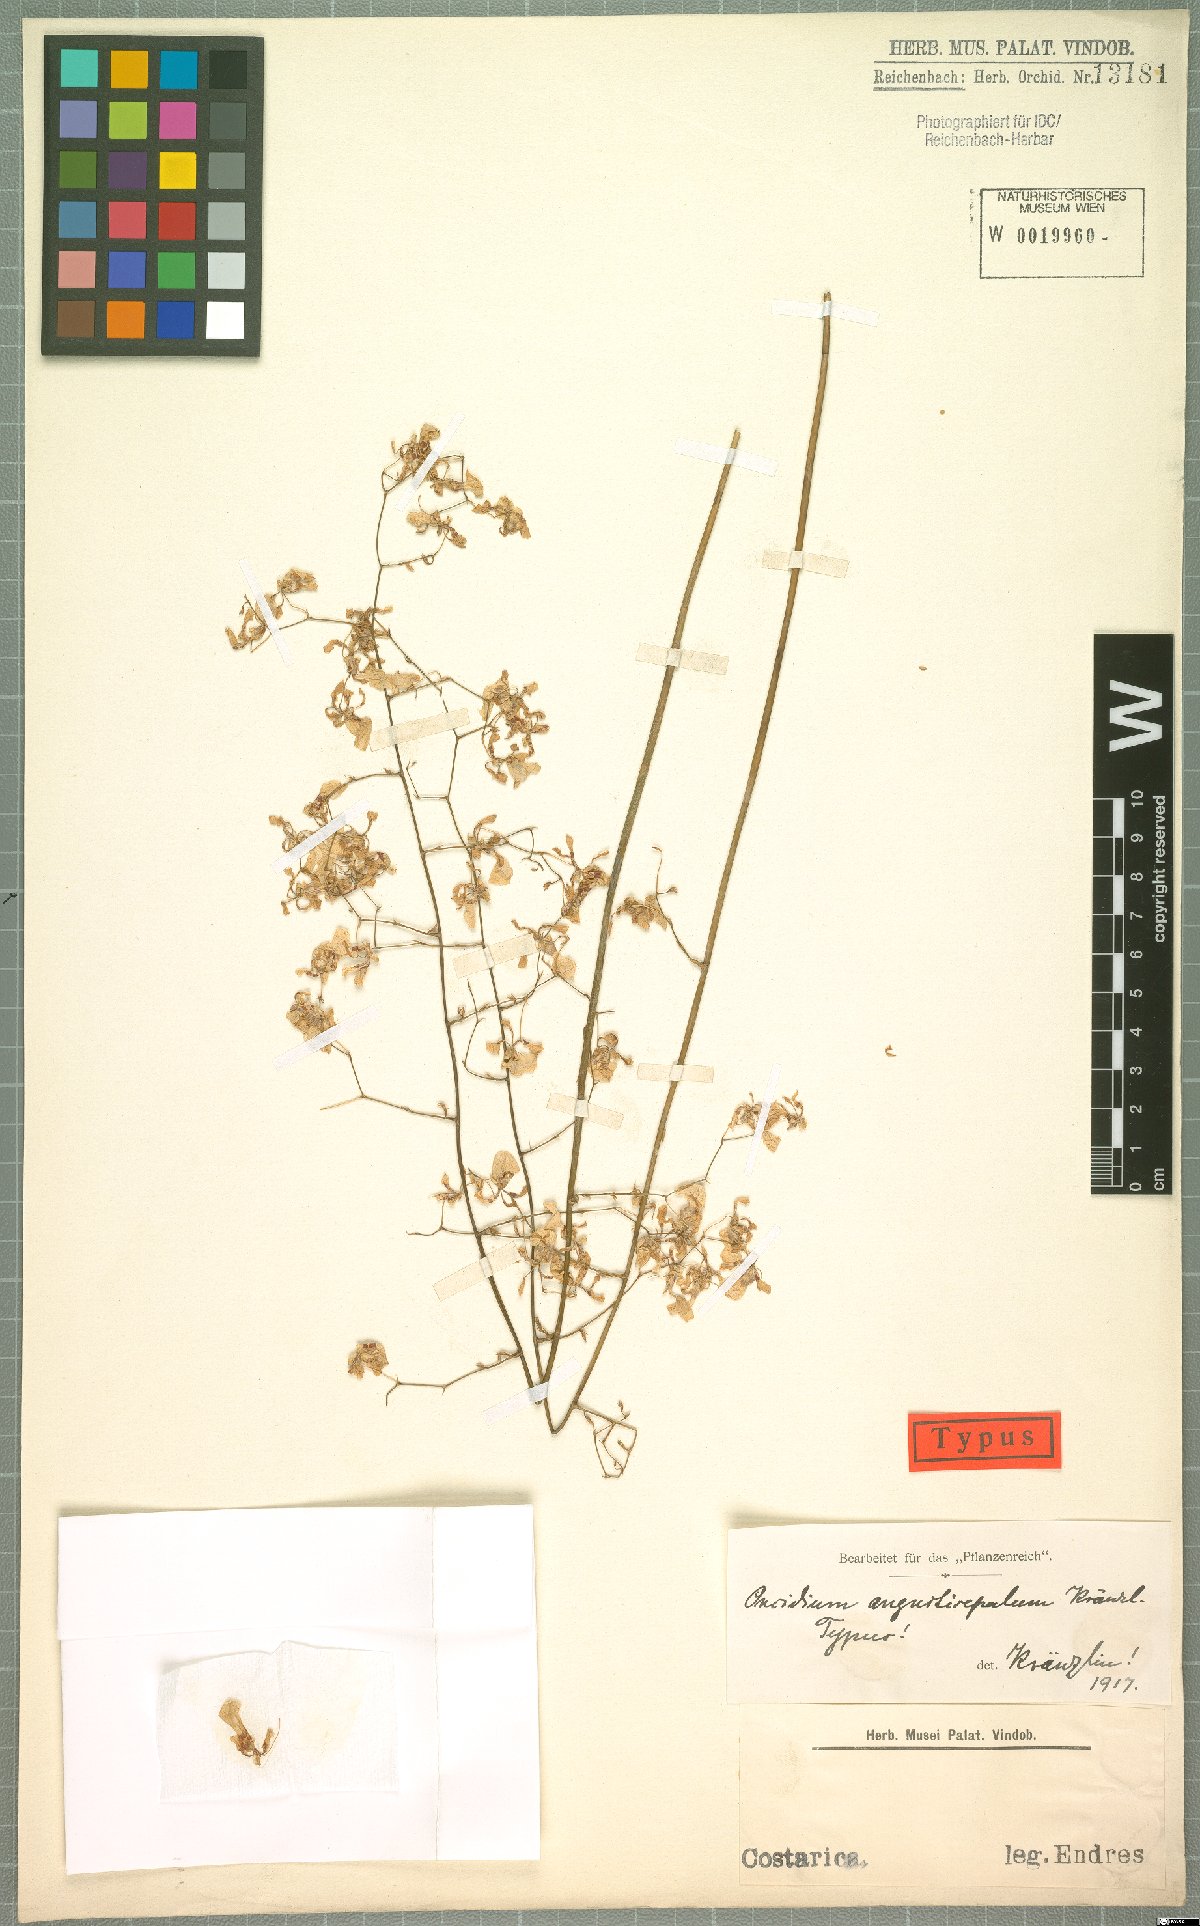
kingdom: Plantae
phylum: Tracheophyta
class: Liliopsida
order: Asparagales
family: Orchidaceae
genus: Oncidium
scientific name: Oncidium nebulosum
